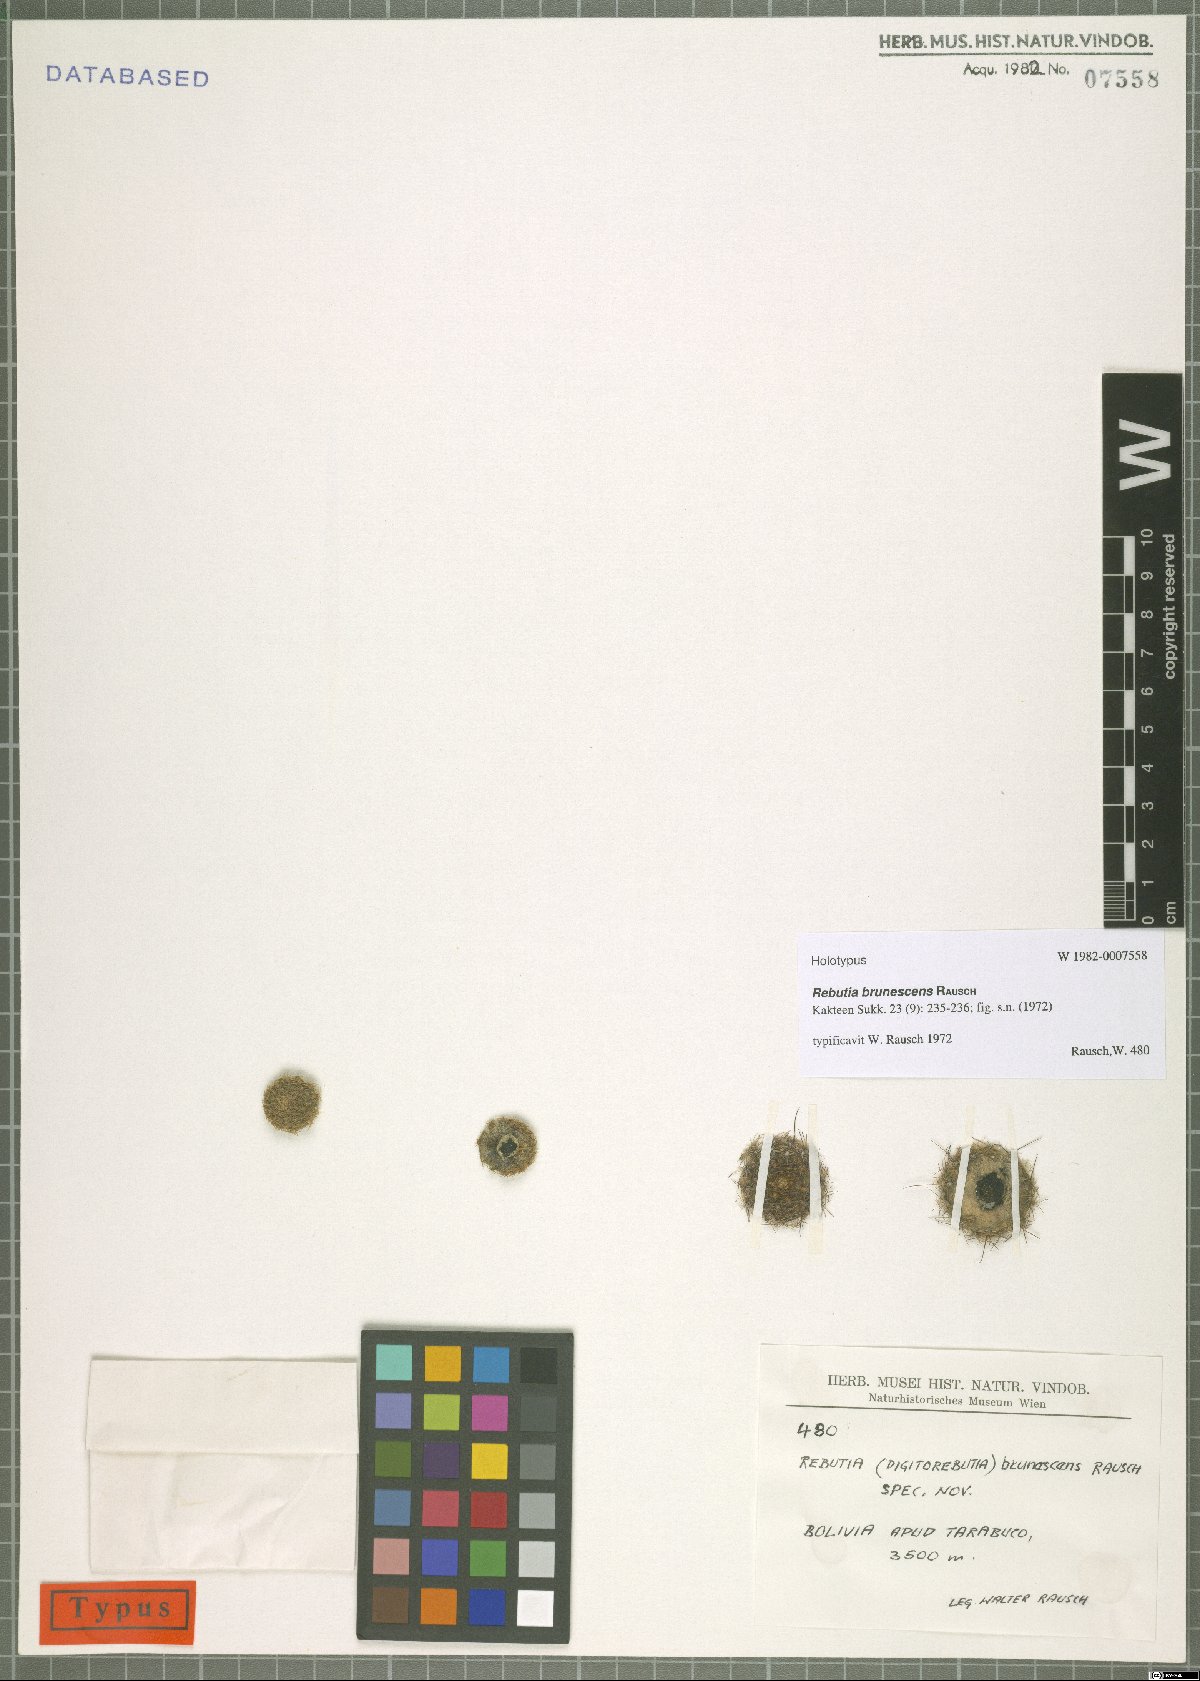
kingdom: Plantae
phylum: Tracheophyta
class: Magnoliopsida
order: Caryophyllales
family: Cactaceae
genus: Aylostera
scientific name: Aylostera pygmaea
